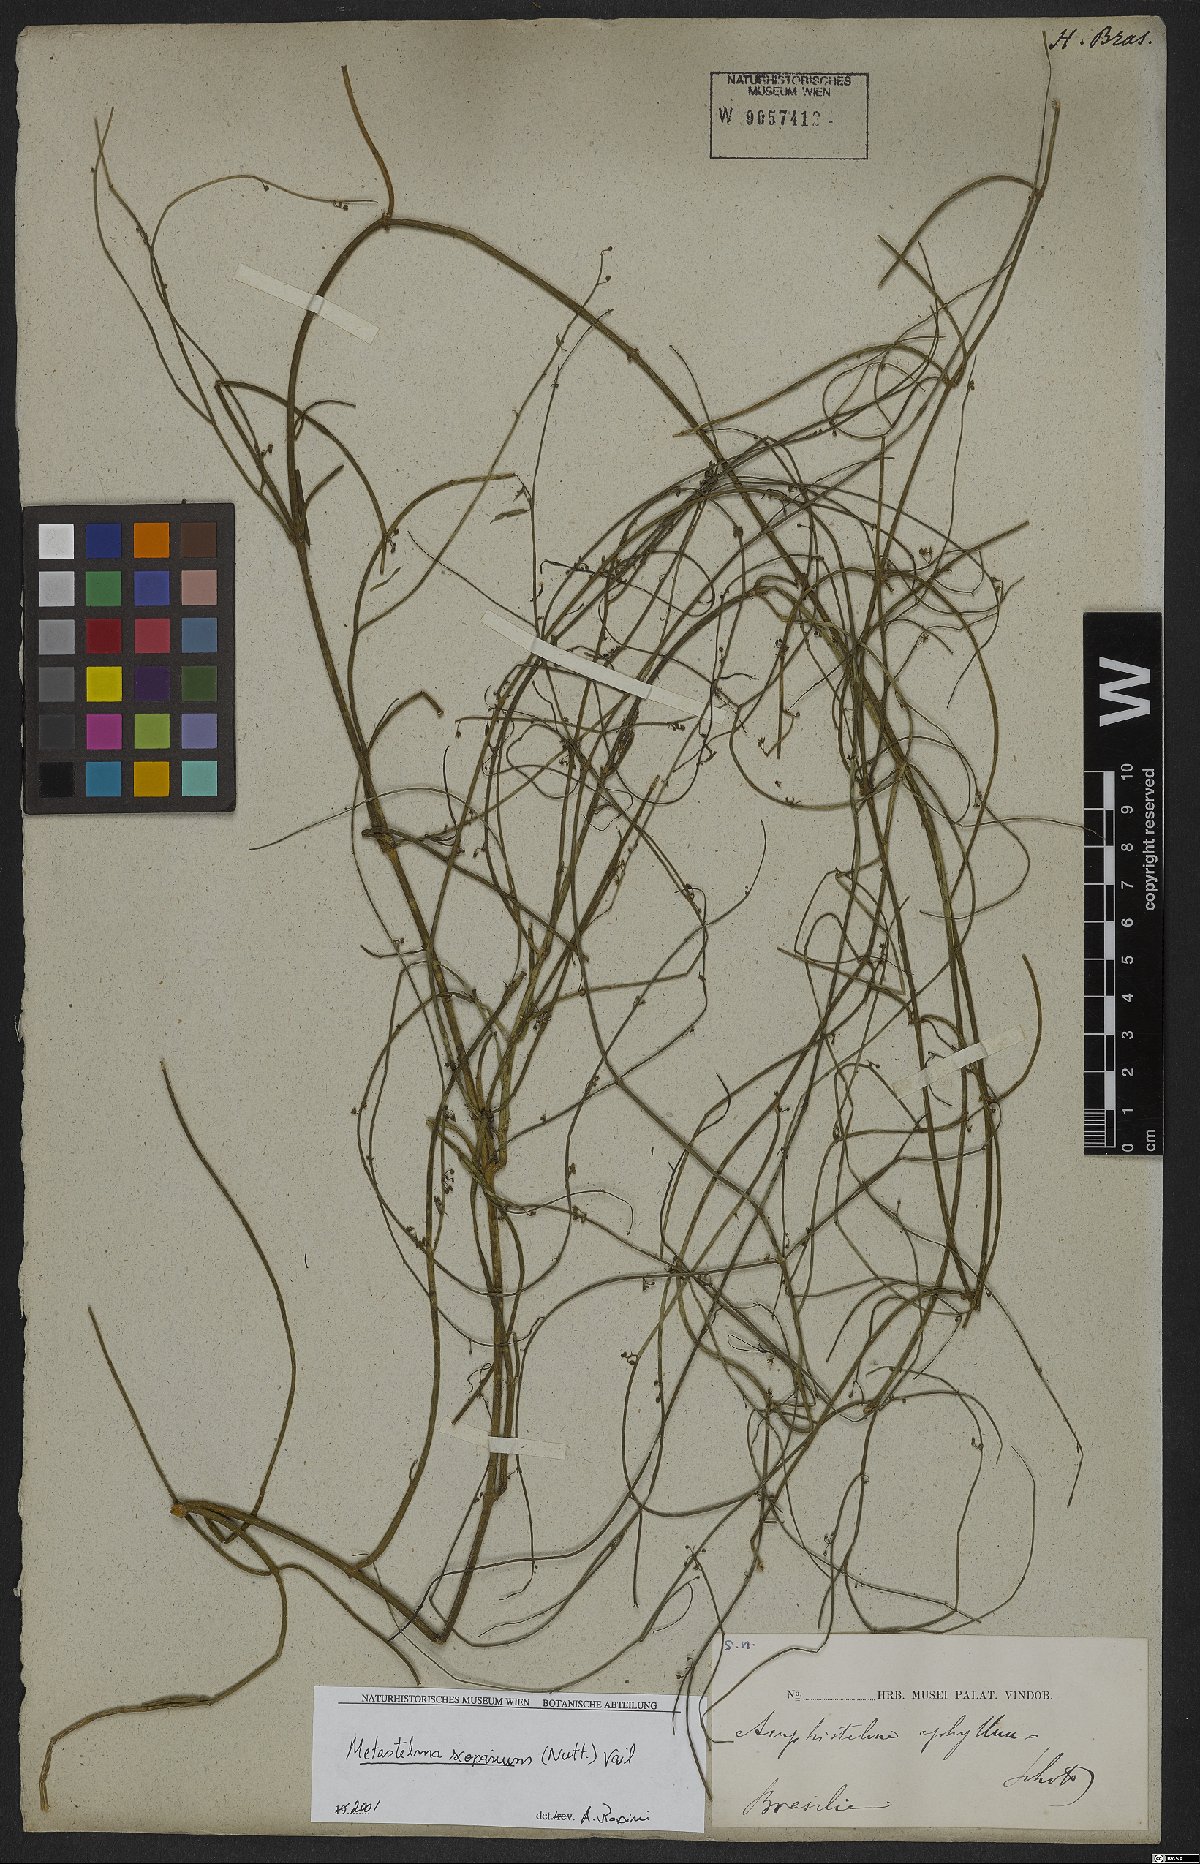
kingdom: Plantae
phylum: Tracheophyta
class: Magnoliopsida
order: Gentianales
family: Apocynaceae
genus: Orthosia
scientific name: Orthosia scoparia
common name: Leafless swallow-wort
